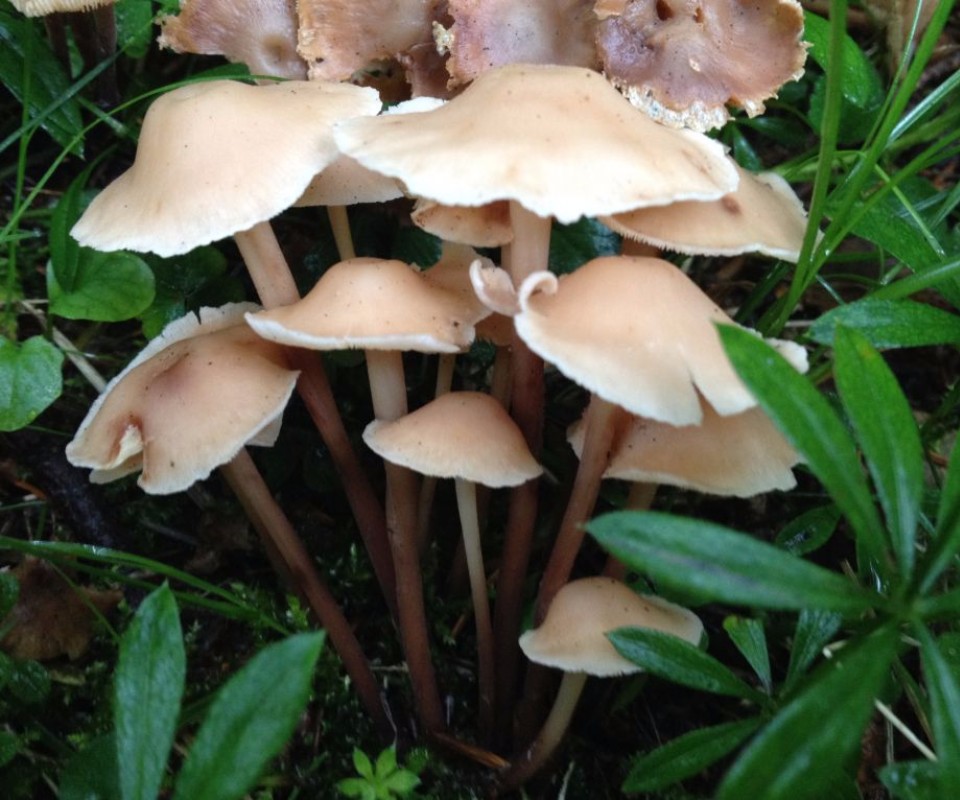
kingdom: Fungi
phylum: Basidiomycota
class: Agaricomycetes
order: Agaricales
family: Omphalotaceae
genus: Collybiopsis
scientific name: Collybiopsis confluens
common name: knippe-fladhat
